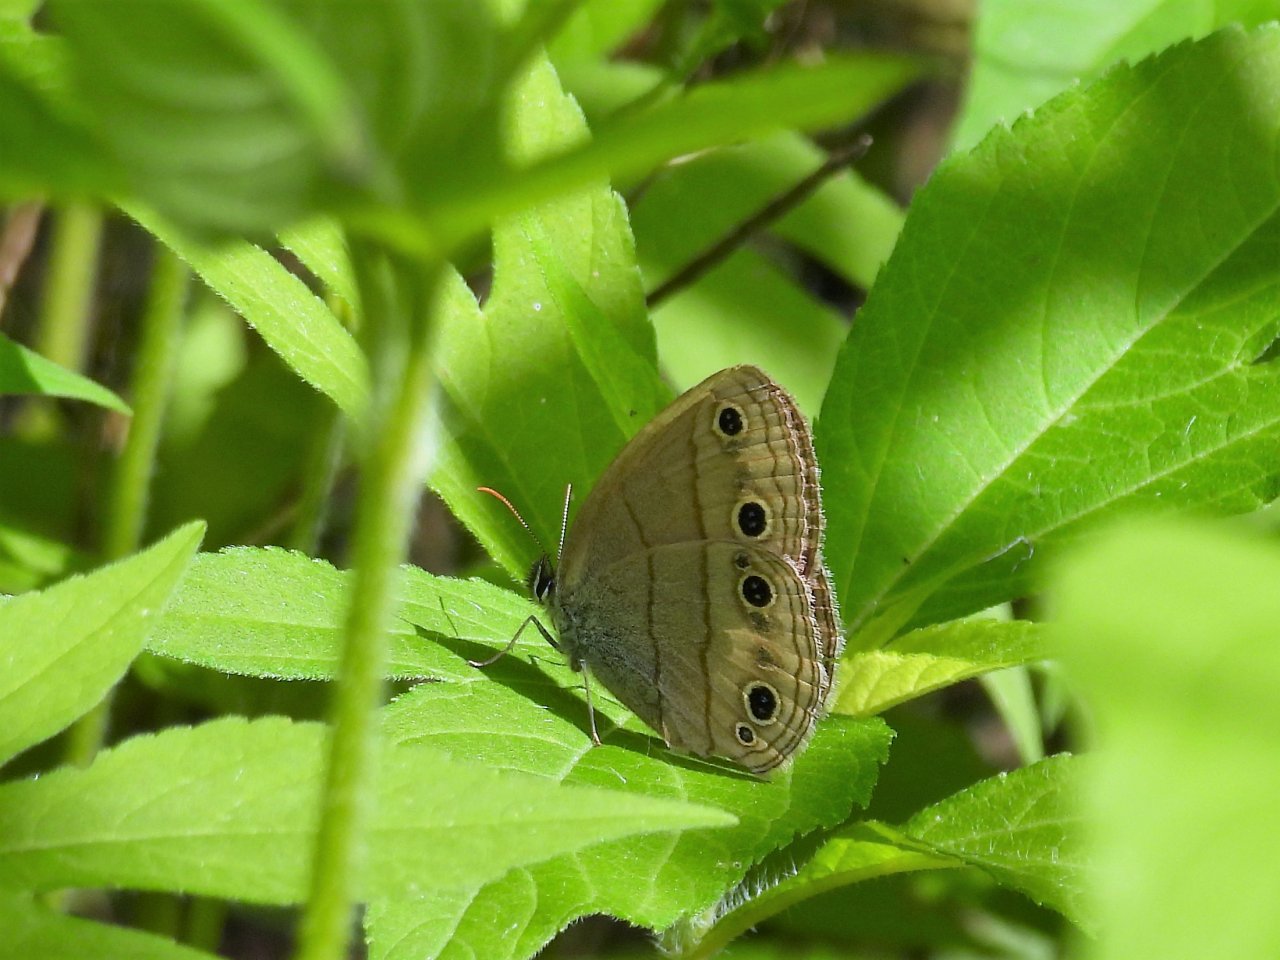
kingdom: Animalia
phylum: Arthropoda
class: Insecta
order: Lepidoptera
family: Nymphalidae
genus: Euptychia
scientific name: Euptychia cymela
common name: Little Wood Satyr
